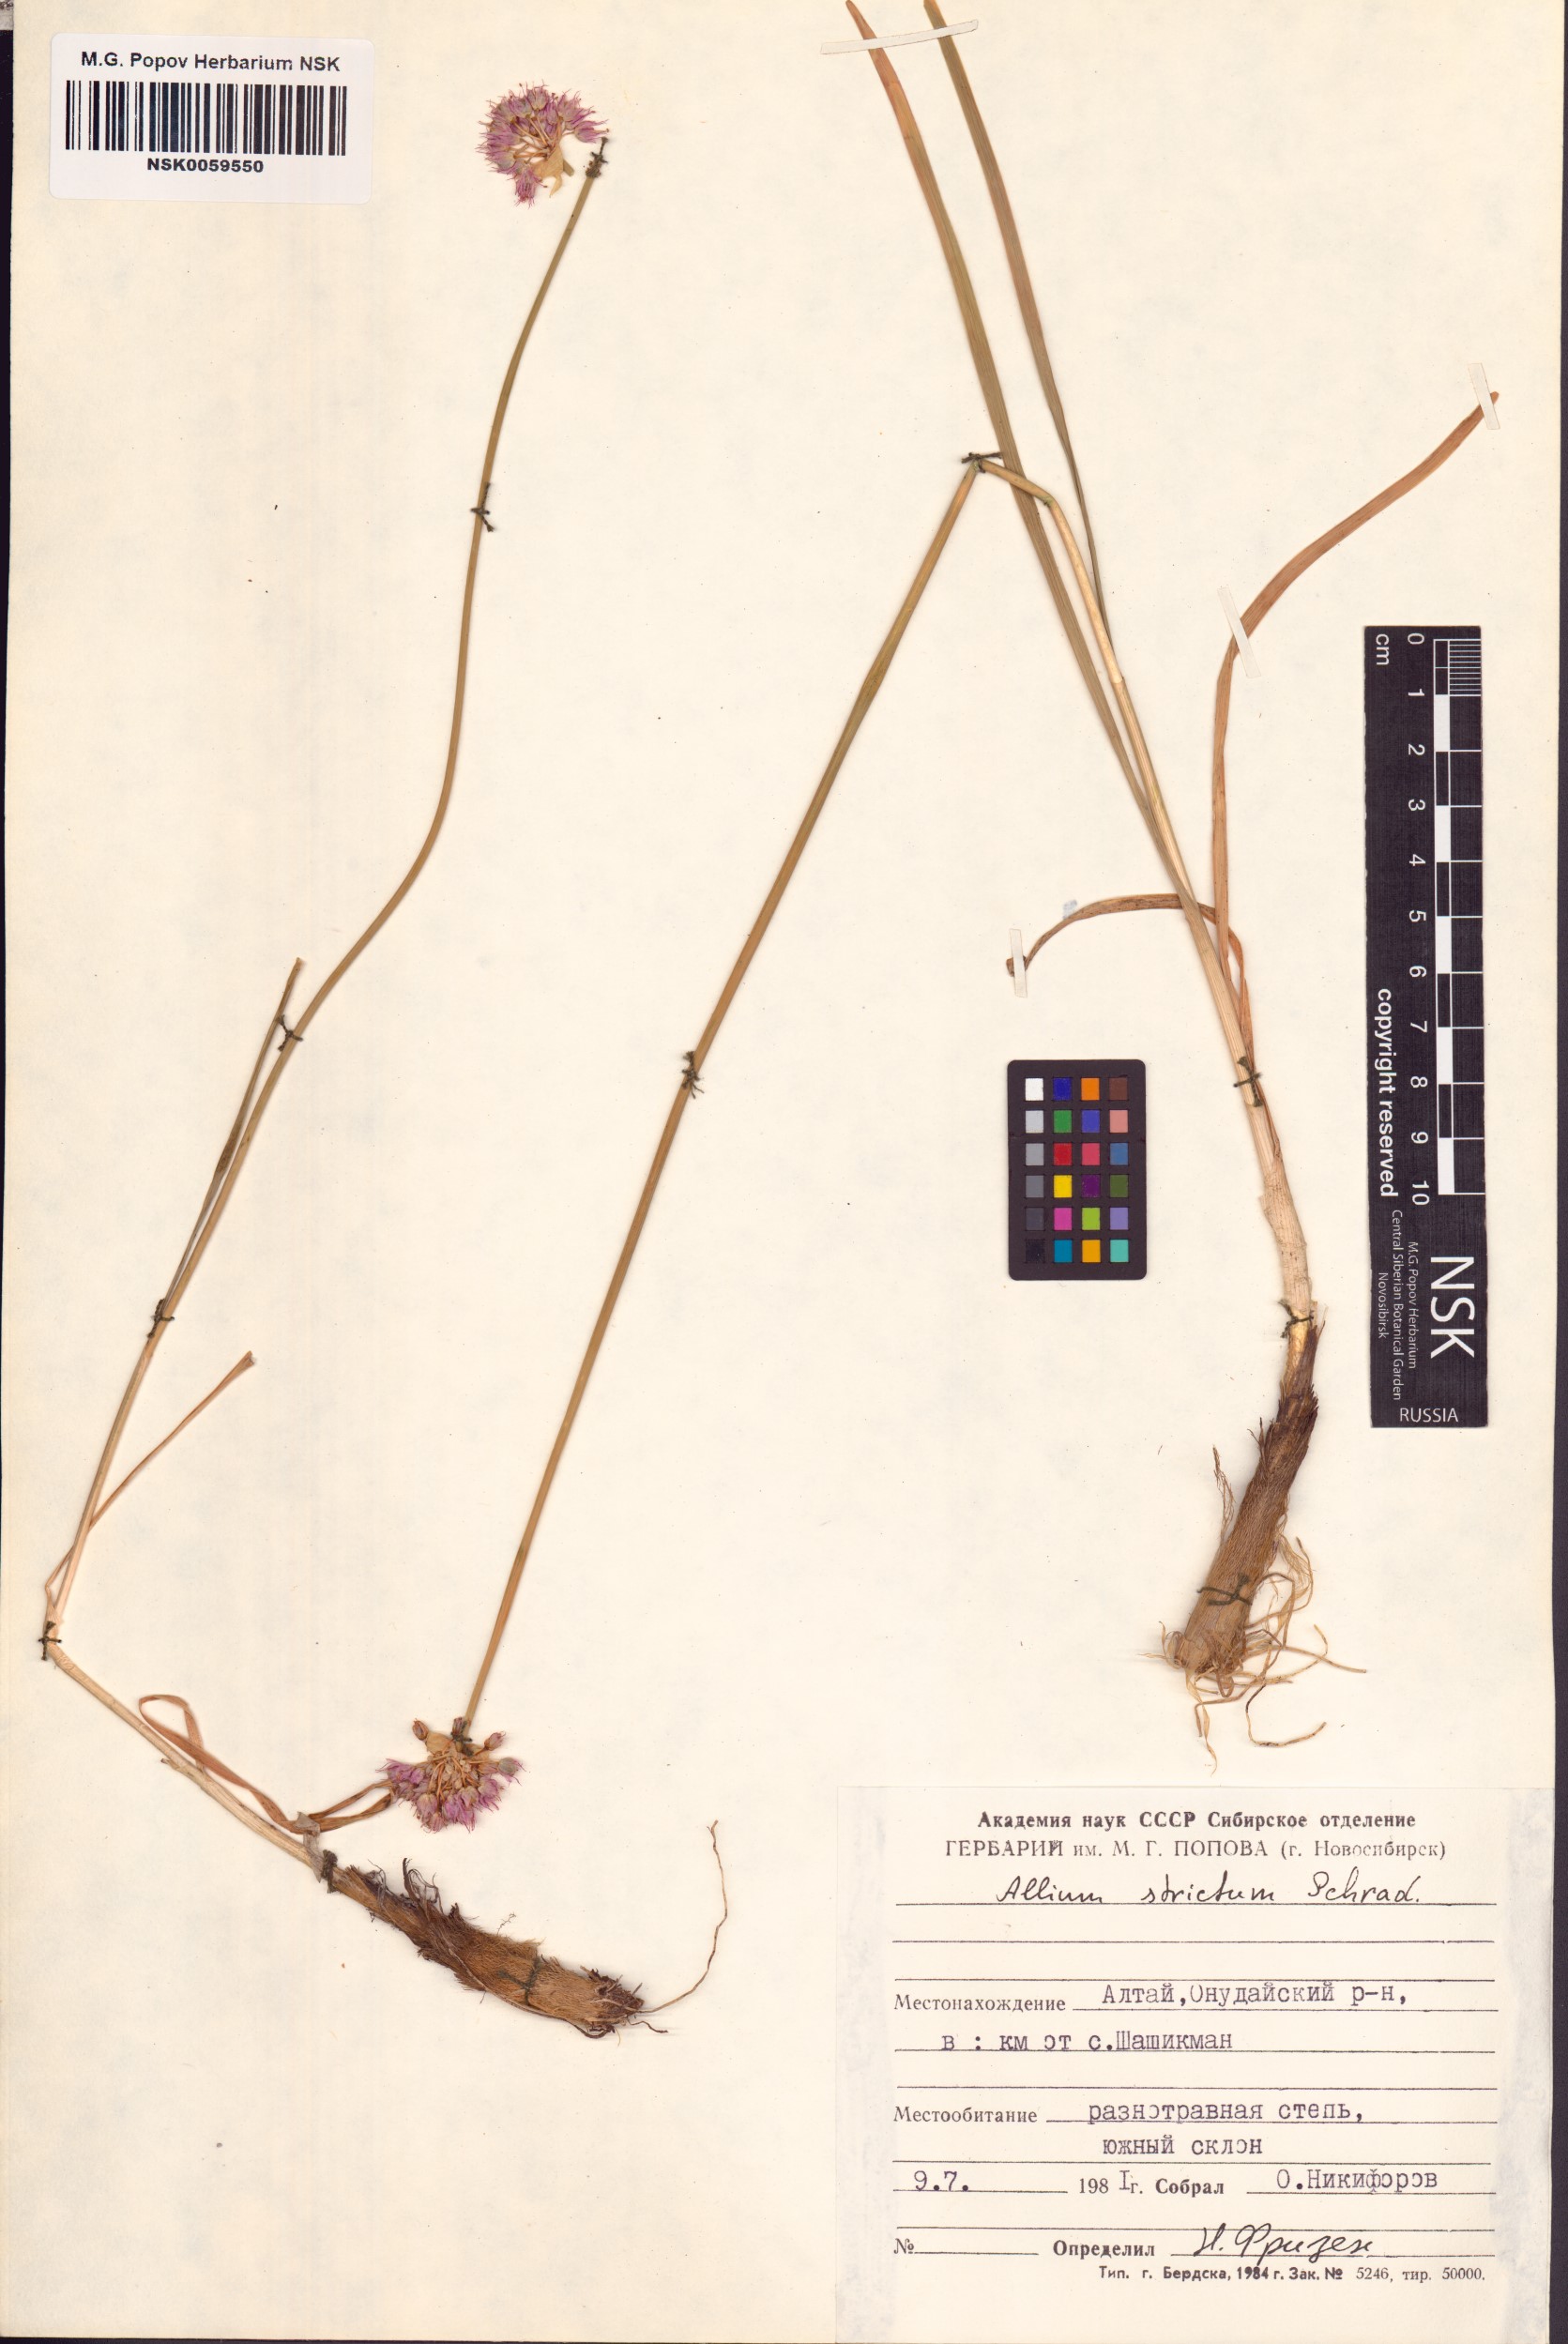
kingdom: Plantae
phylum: Tracheophyta
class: Liliopsida
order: Asparagales
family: Amaryllidaceae
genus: Allium
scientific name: Allium strictum
